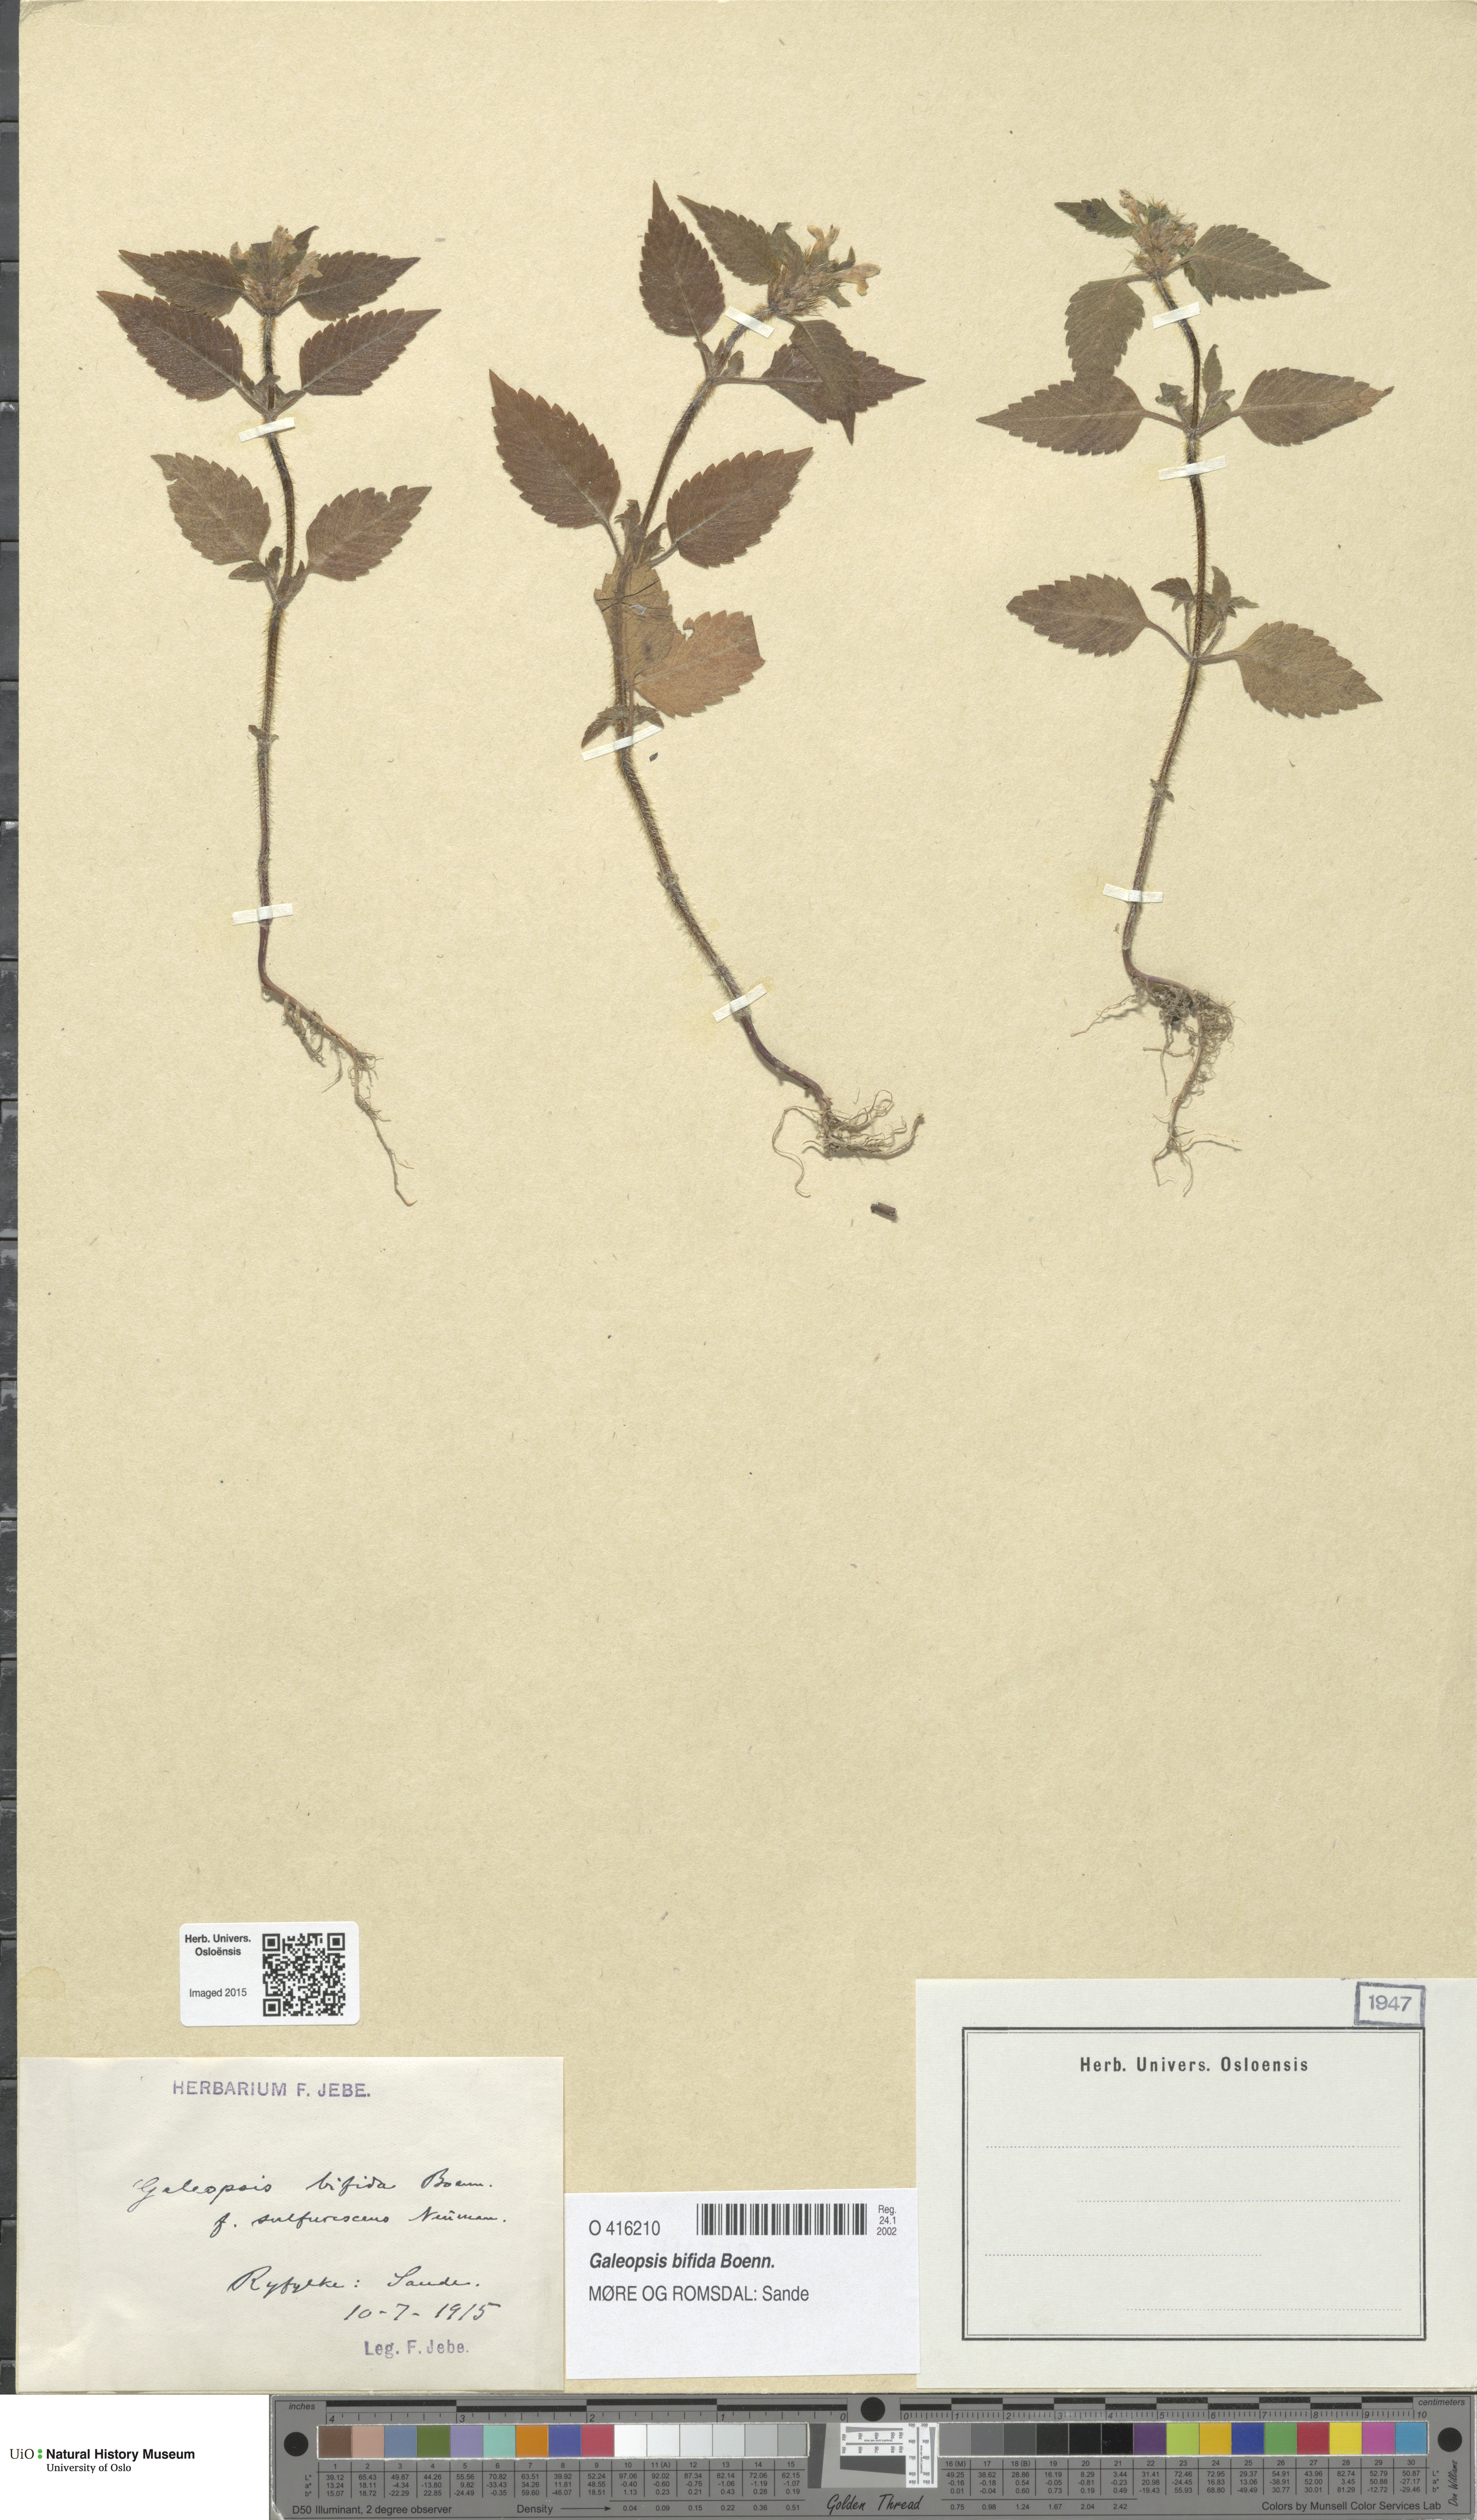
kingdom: Plantae
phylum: Tracheophyta
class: Magnoliopsida
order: Lamiales
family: Lamiaceae
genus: Galeopsis
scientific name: Galeopsis bifida
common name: Bifid hemp-nettle
